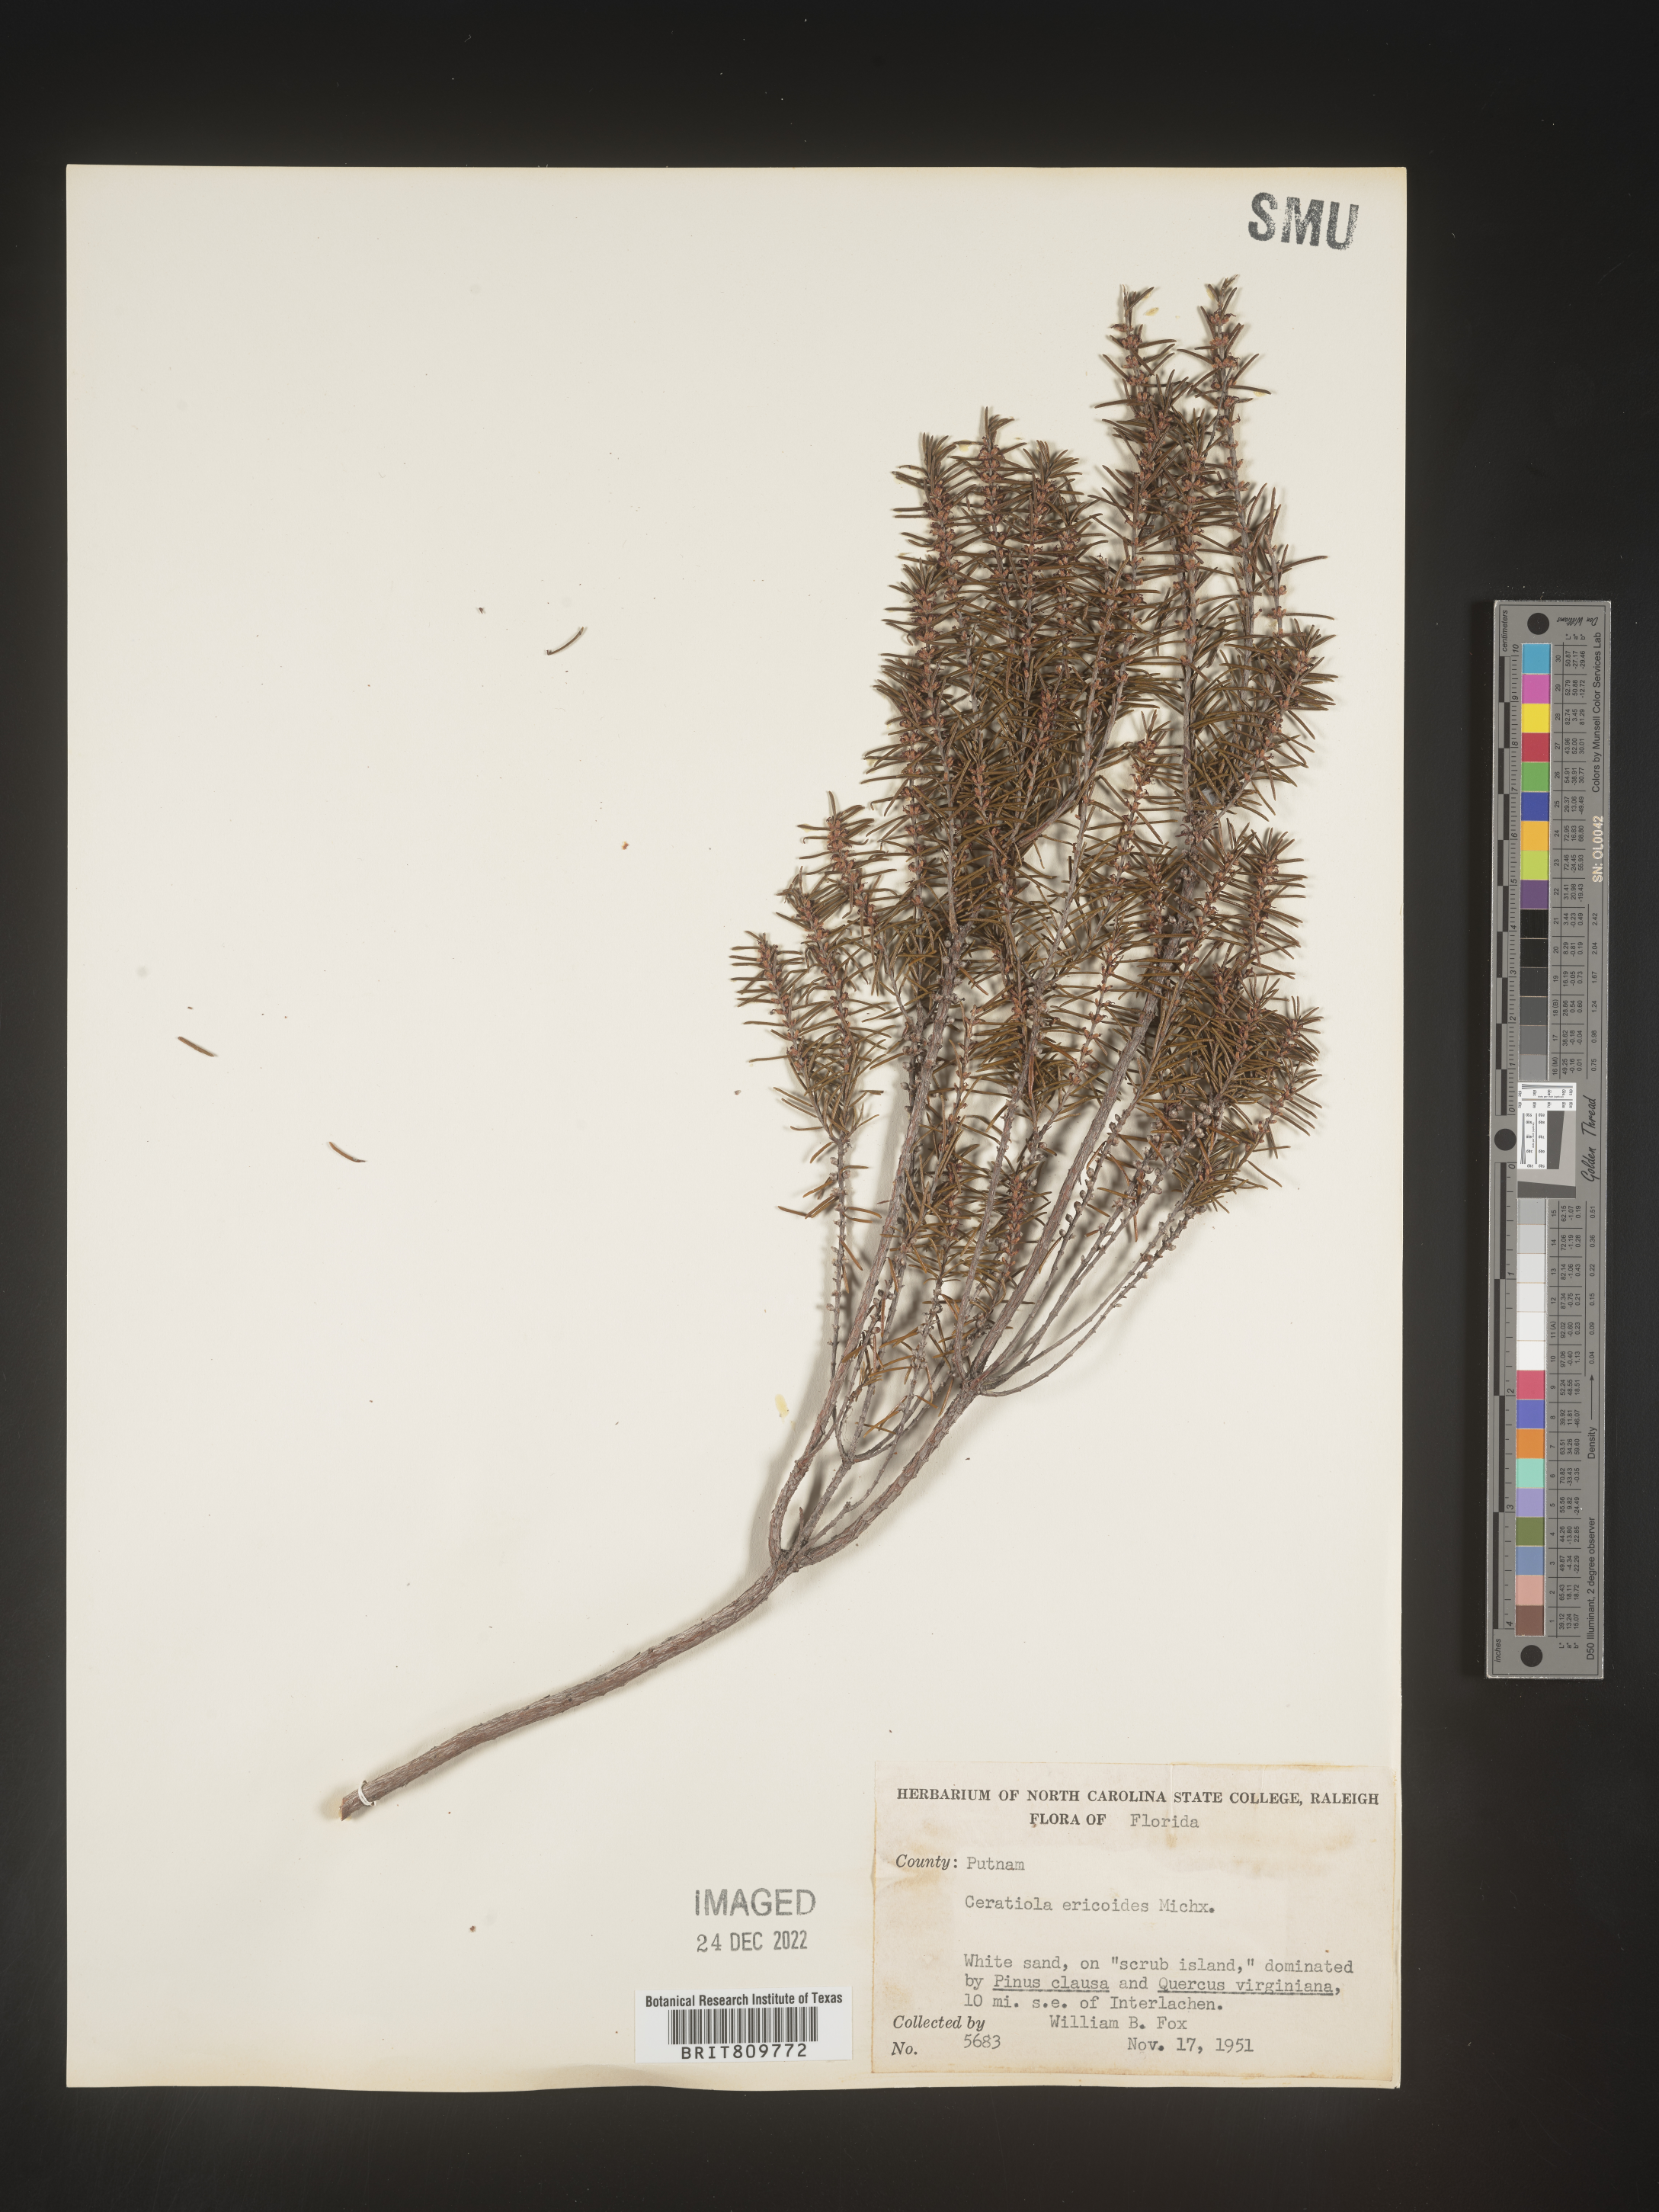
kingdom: Plantae
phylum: Tracheophyta
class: Magnoliopsida
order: Ericales
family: Ericaceae
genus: Ceratiola
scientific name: Ceratiola ericoides
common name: Sandhill-rosemary
